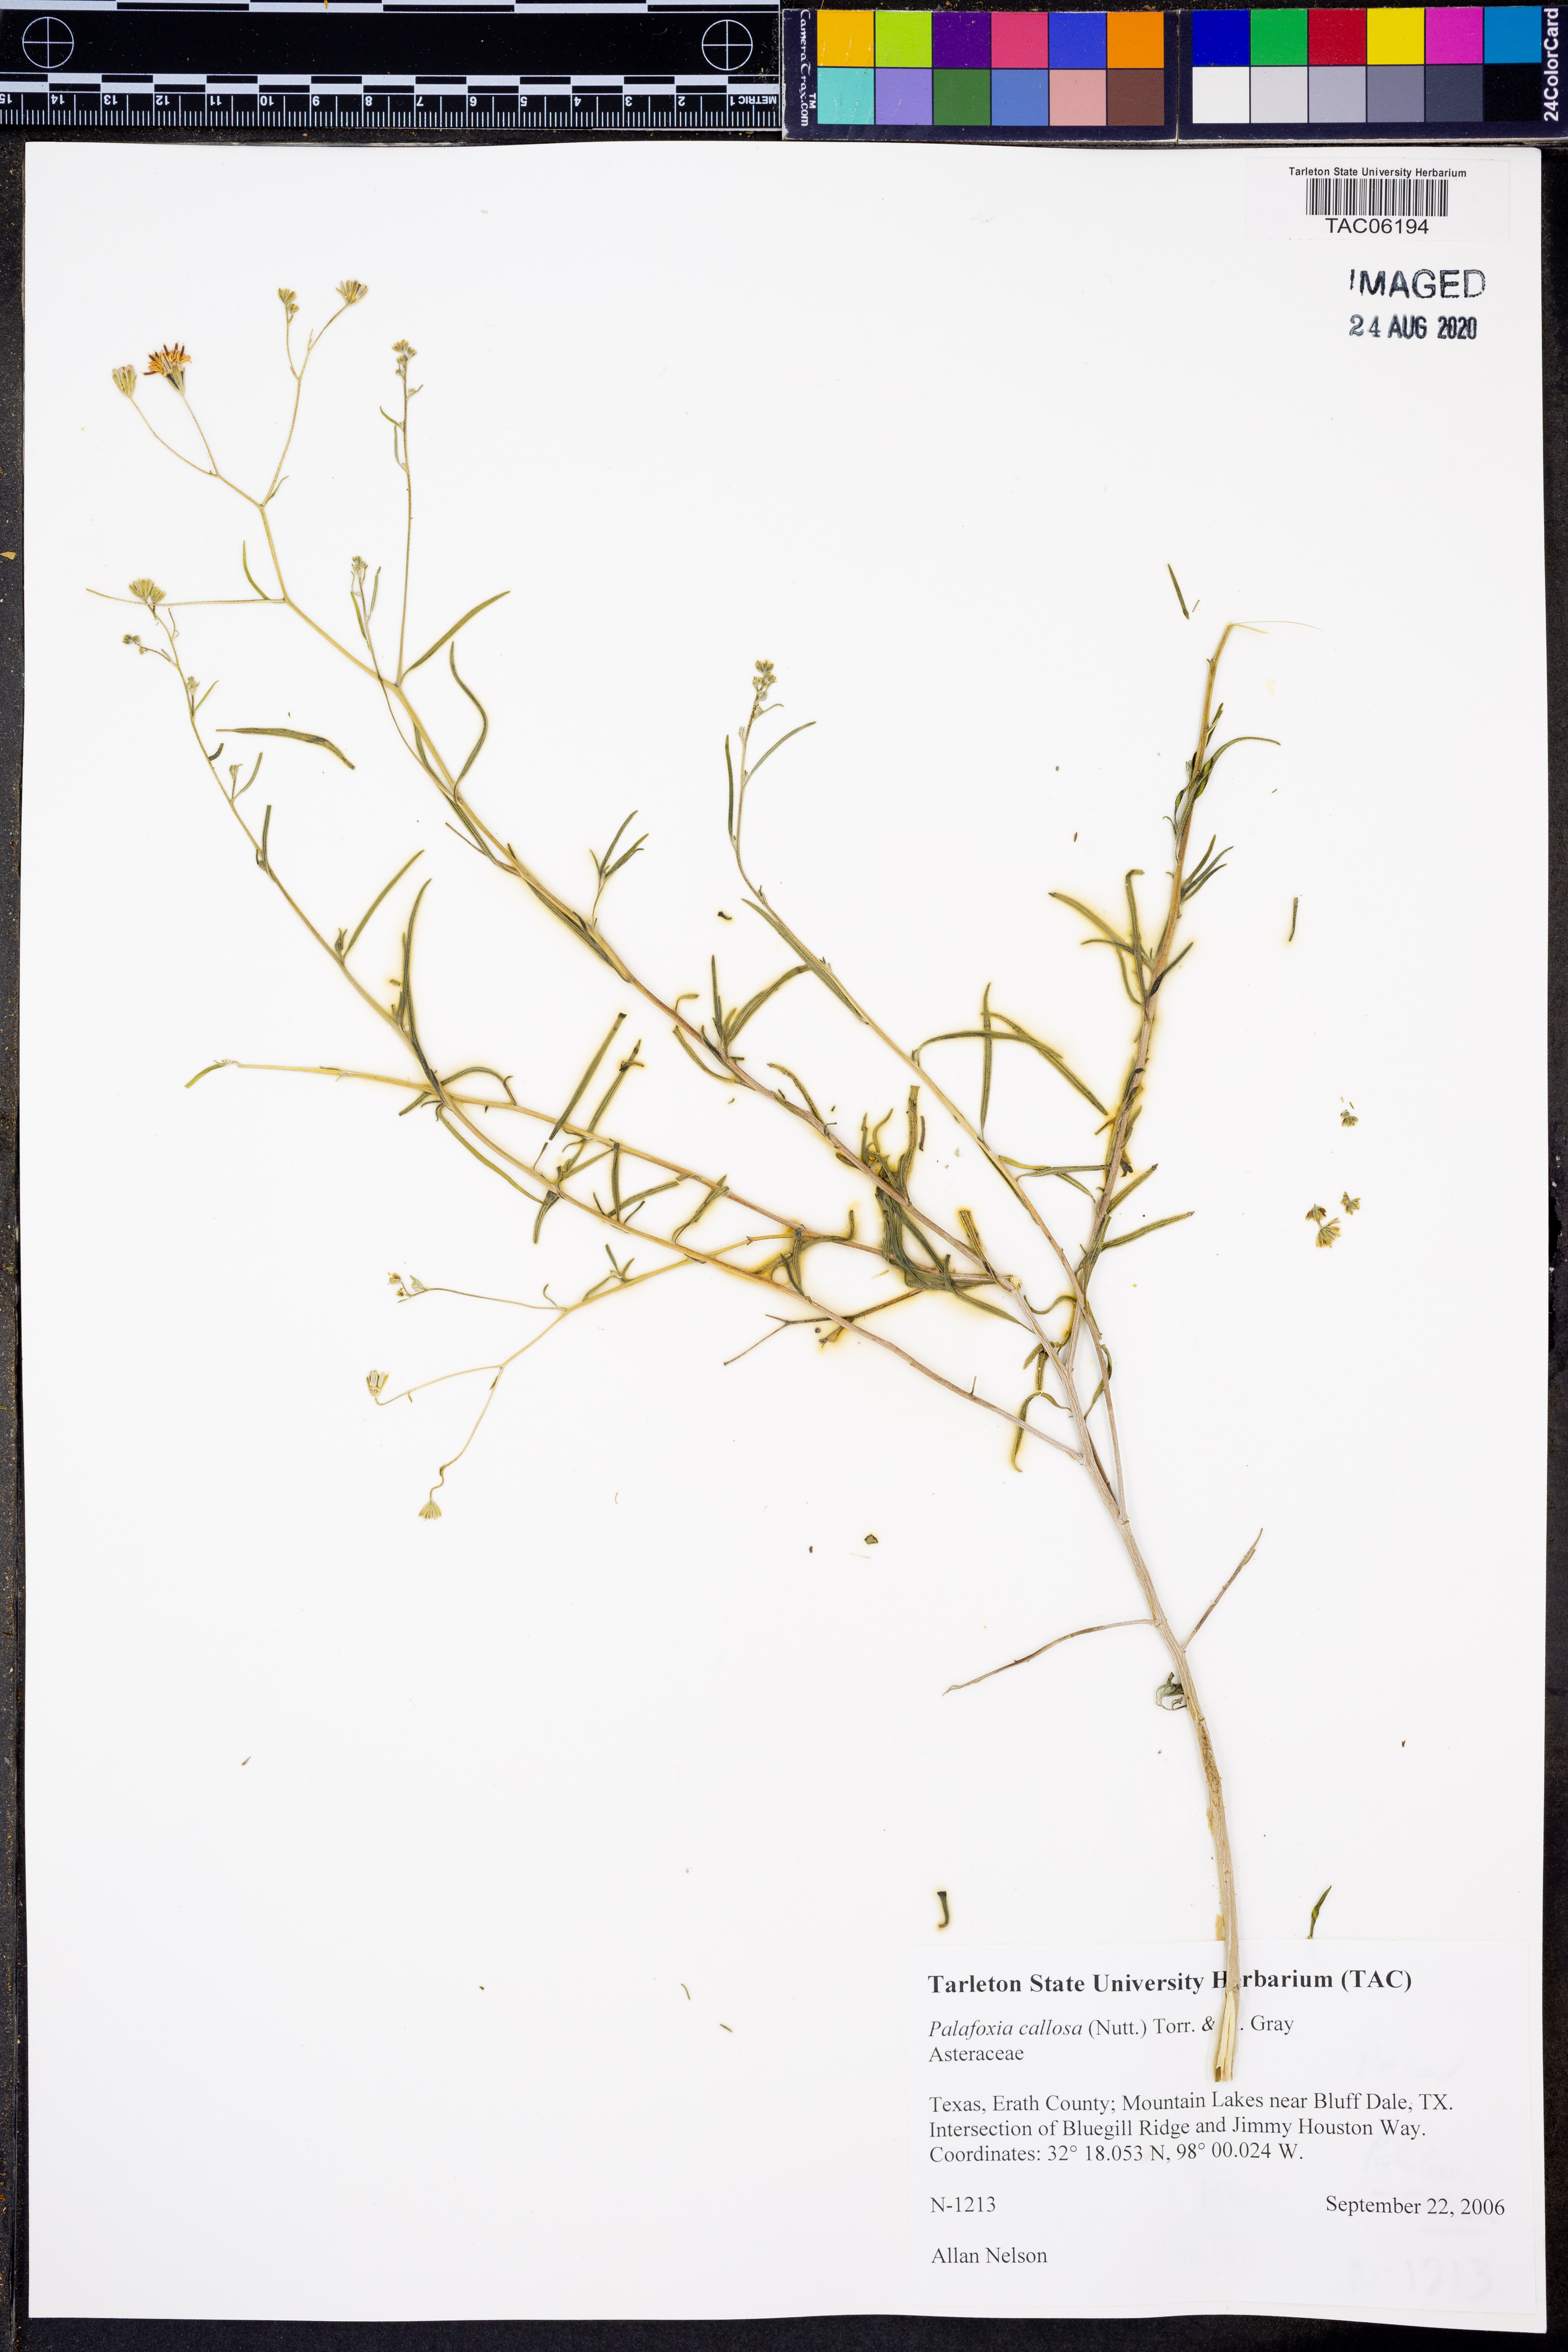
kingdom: Plantae
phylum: Tracheophyta
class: Magnoliopsida
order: Asterales
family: Asteraceae
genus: Palafoxia
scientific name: Palafoxia callosa
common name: Small palafox
